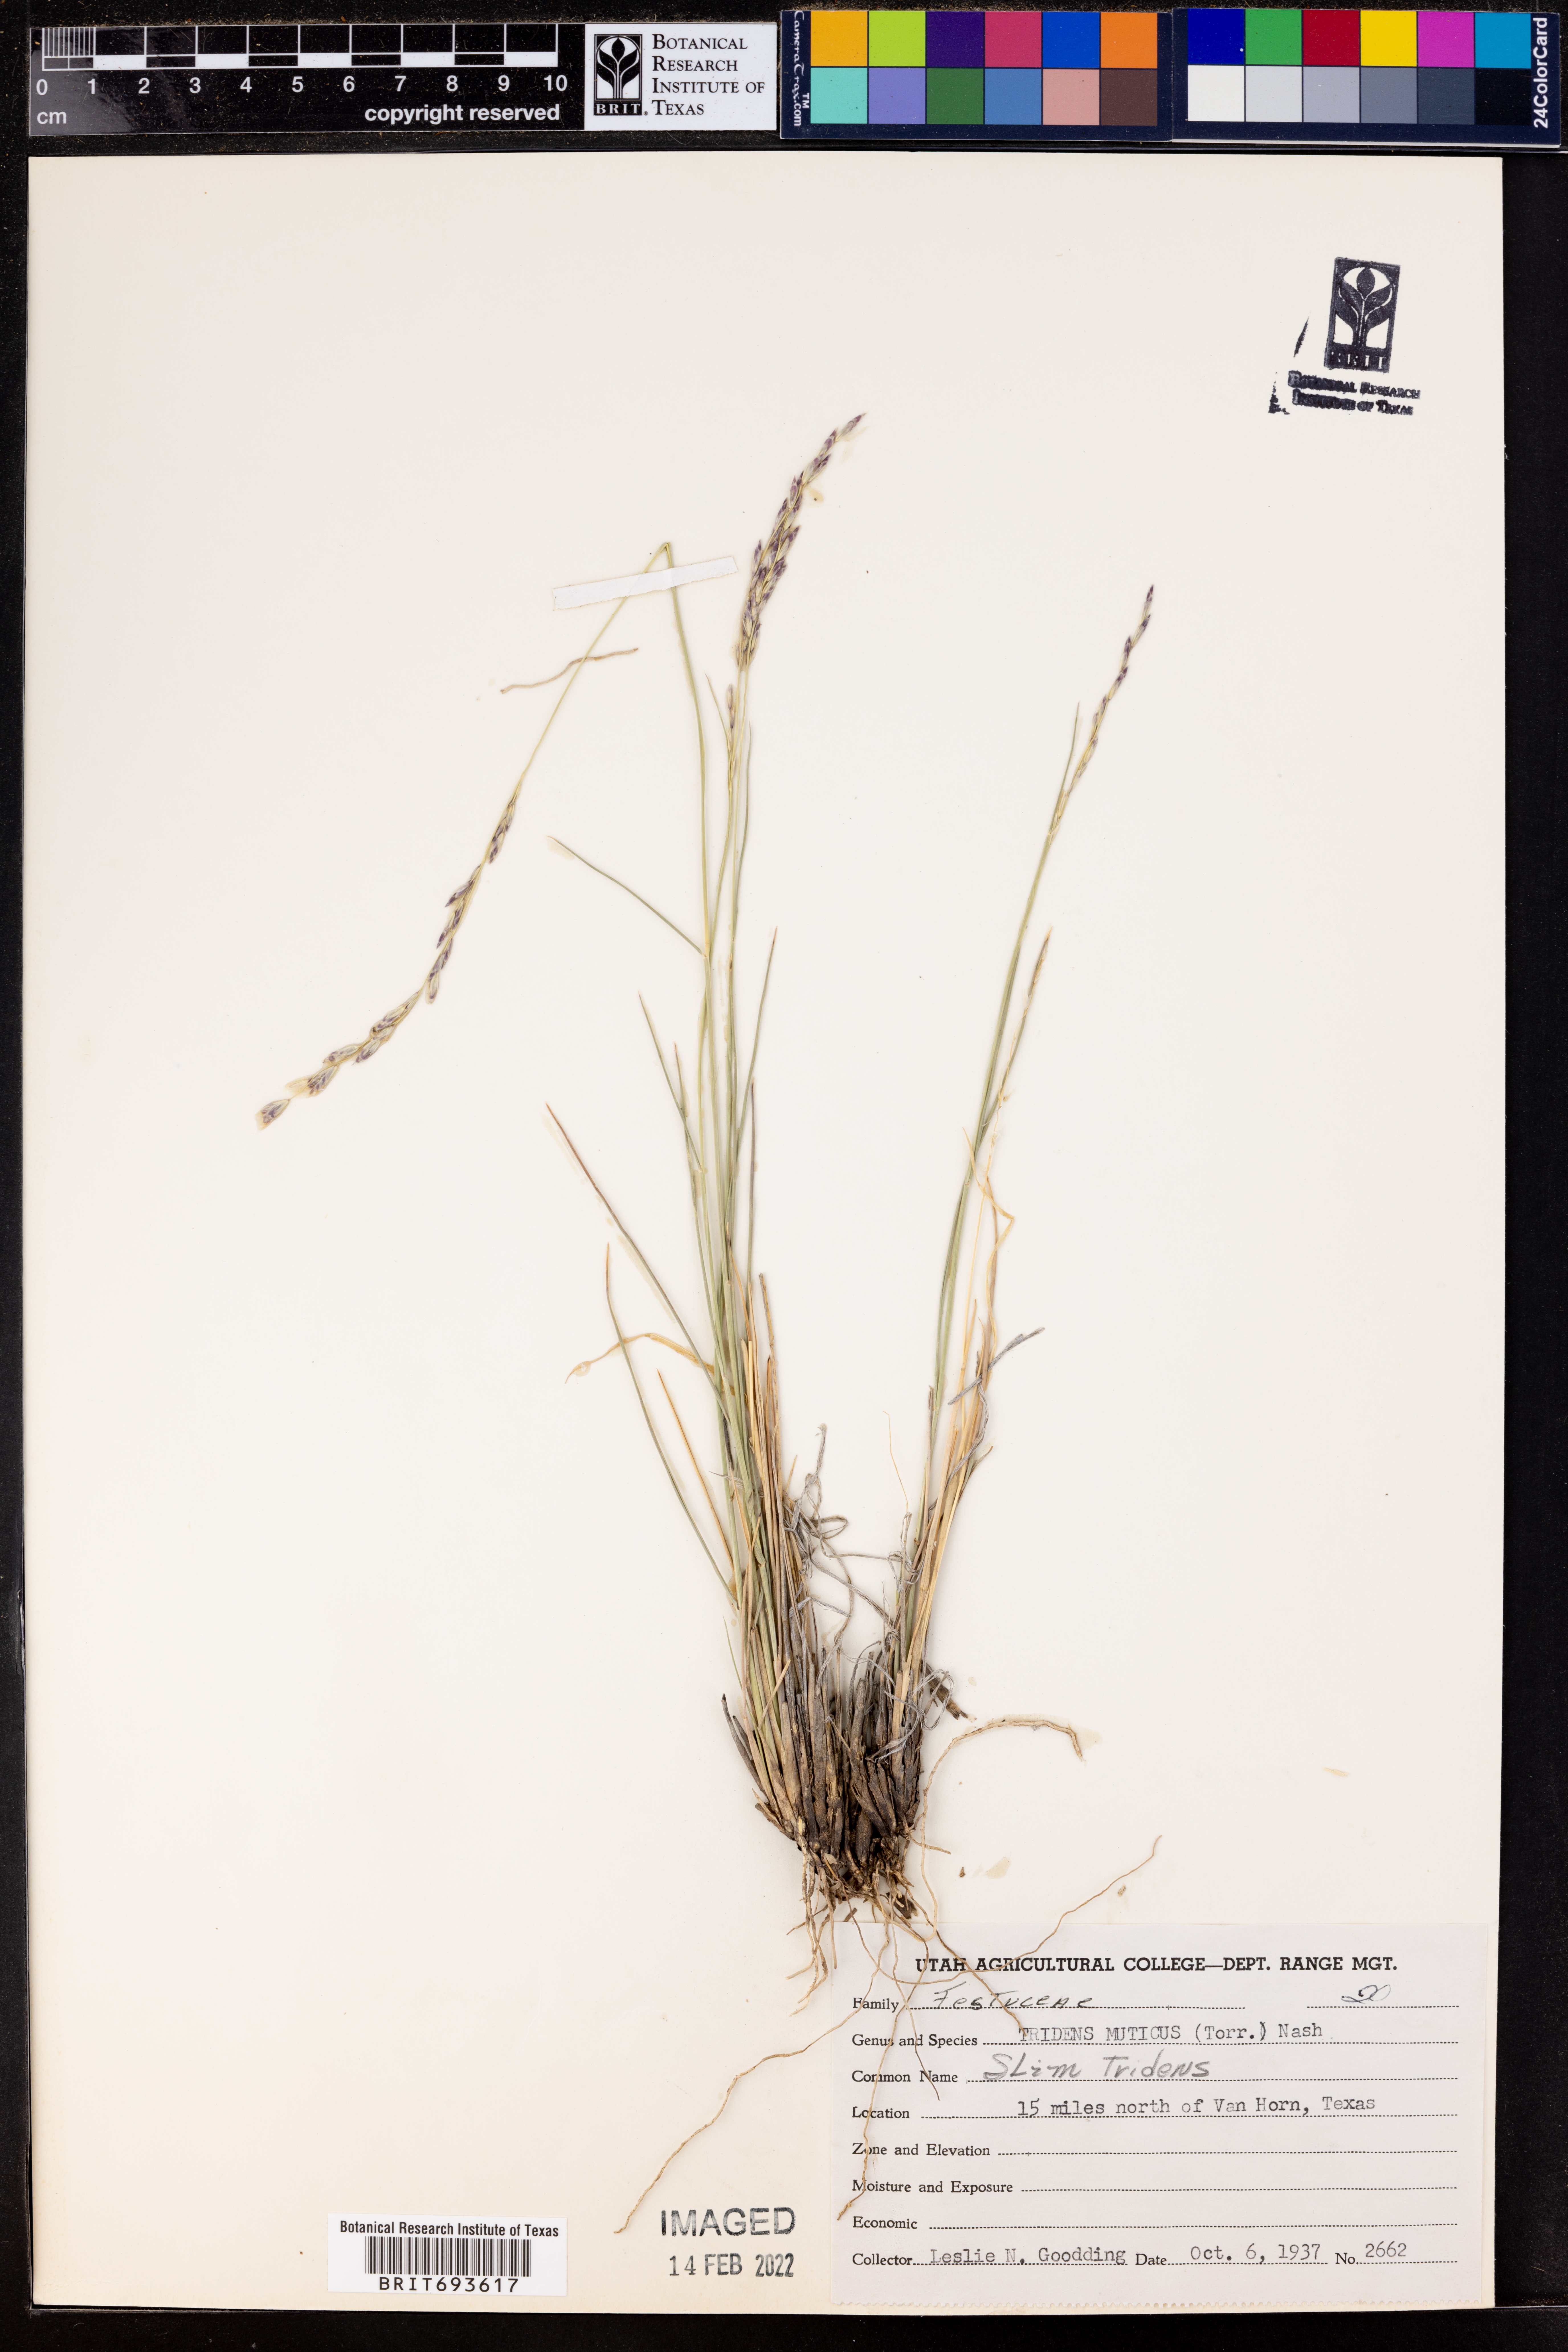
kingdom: Plantae
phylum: Tracheophyta
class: Liliopsida
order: Poales
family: Poaceae
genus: Tridentopsis
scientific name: Tridentopsis mutica
